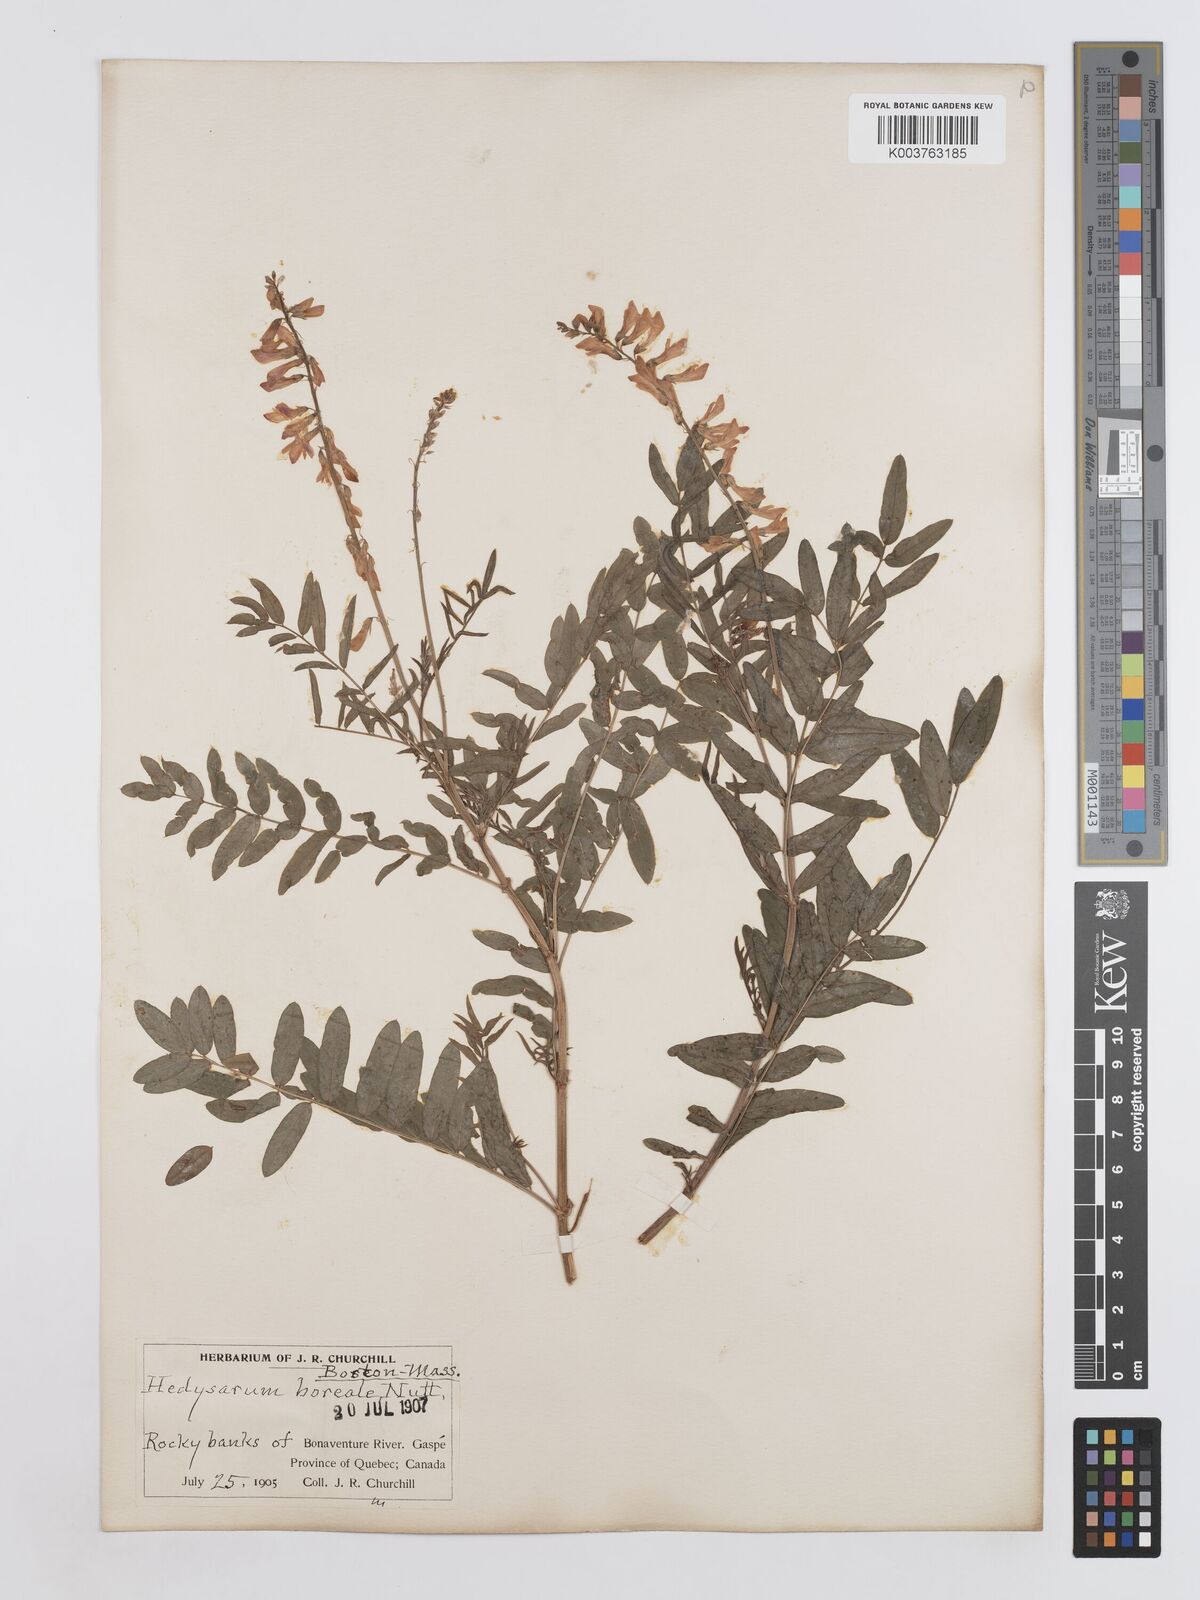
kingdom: Plantae
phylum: Tracheophyta
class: Magnoliopsida
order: Fabales
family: Fabaceae
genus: Hedysarum
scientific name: Hedysarum boreale
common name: Northern sweet-vetch
